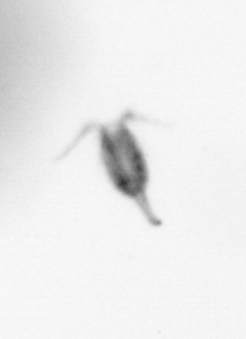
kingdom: Animalia
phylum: Arthropoda
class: Copepoda
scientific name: Copepoda
